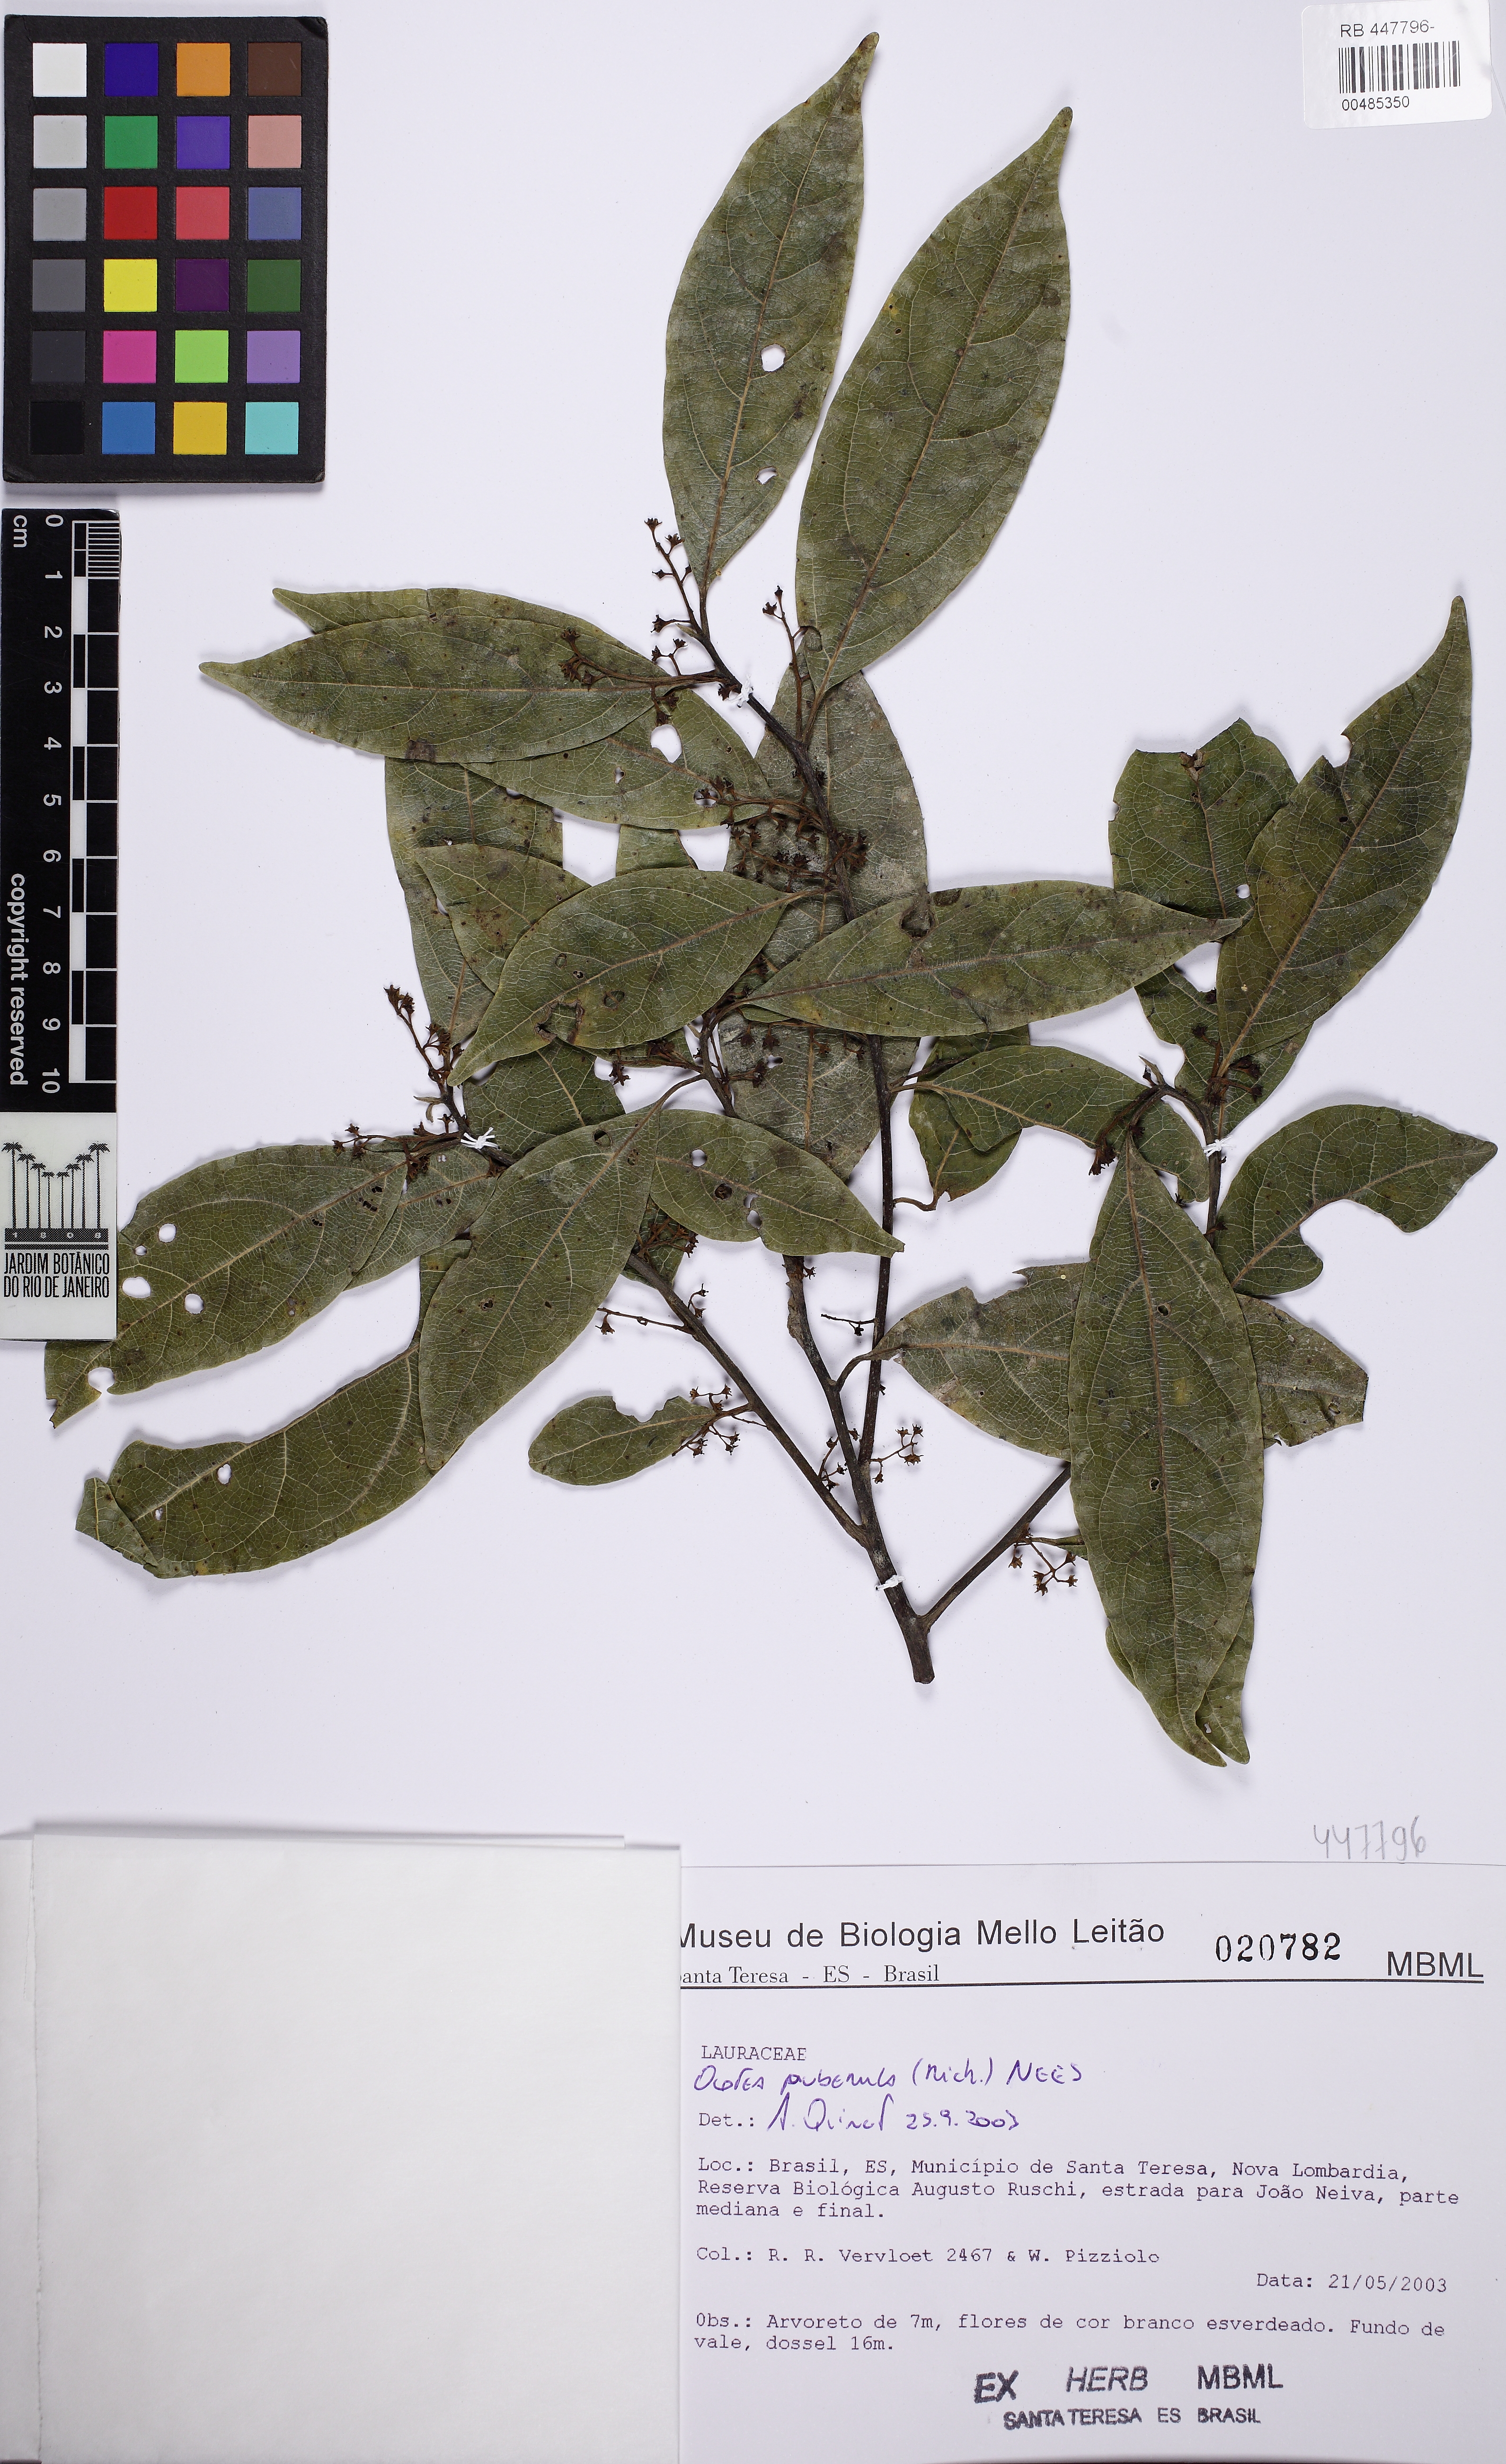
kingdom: Plantae
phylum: Tracheophyta
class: Magnoliopsida
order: Laurales
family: Lauraceae
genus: Ocotea
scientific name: Ocotea puberula
